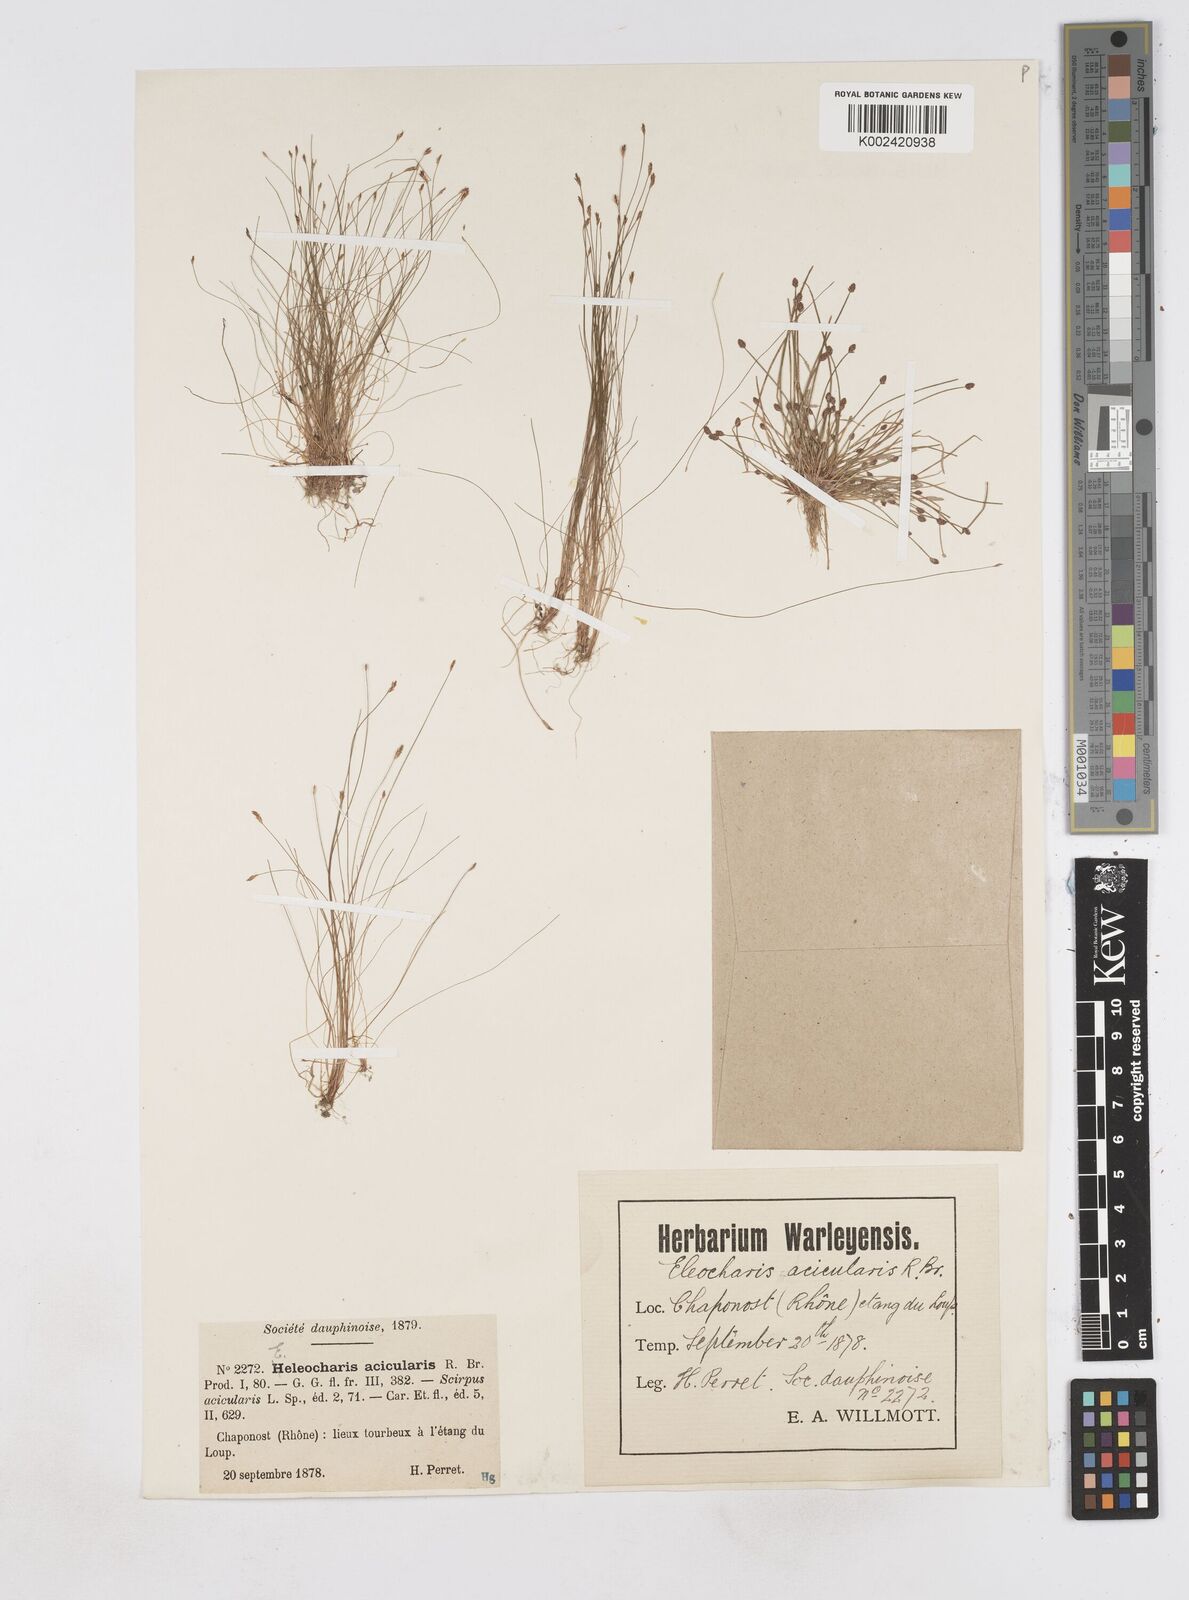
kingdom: Plantae
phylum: Tracheophyta
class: Liliopsida
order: Poales
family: Cyperaceae
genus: Eleocharis
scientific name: Eleocharis acicularis
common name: Needle spike-rush
